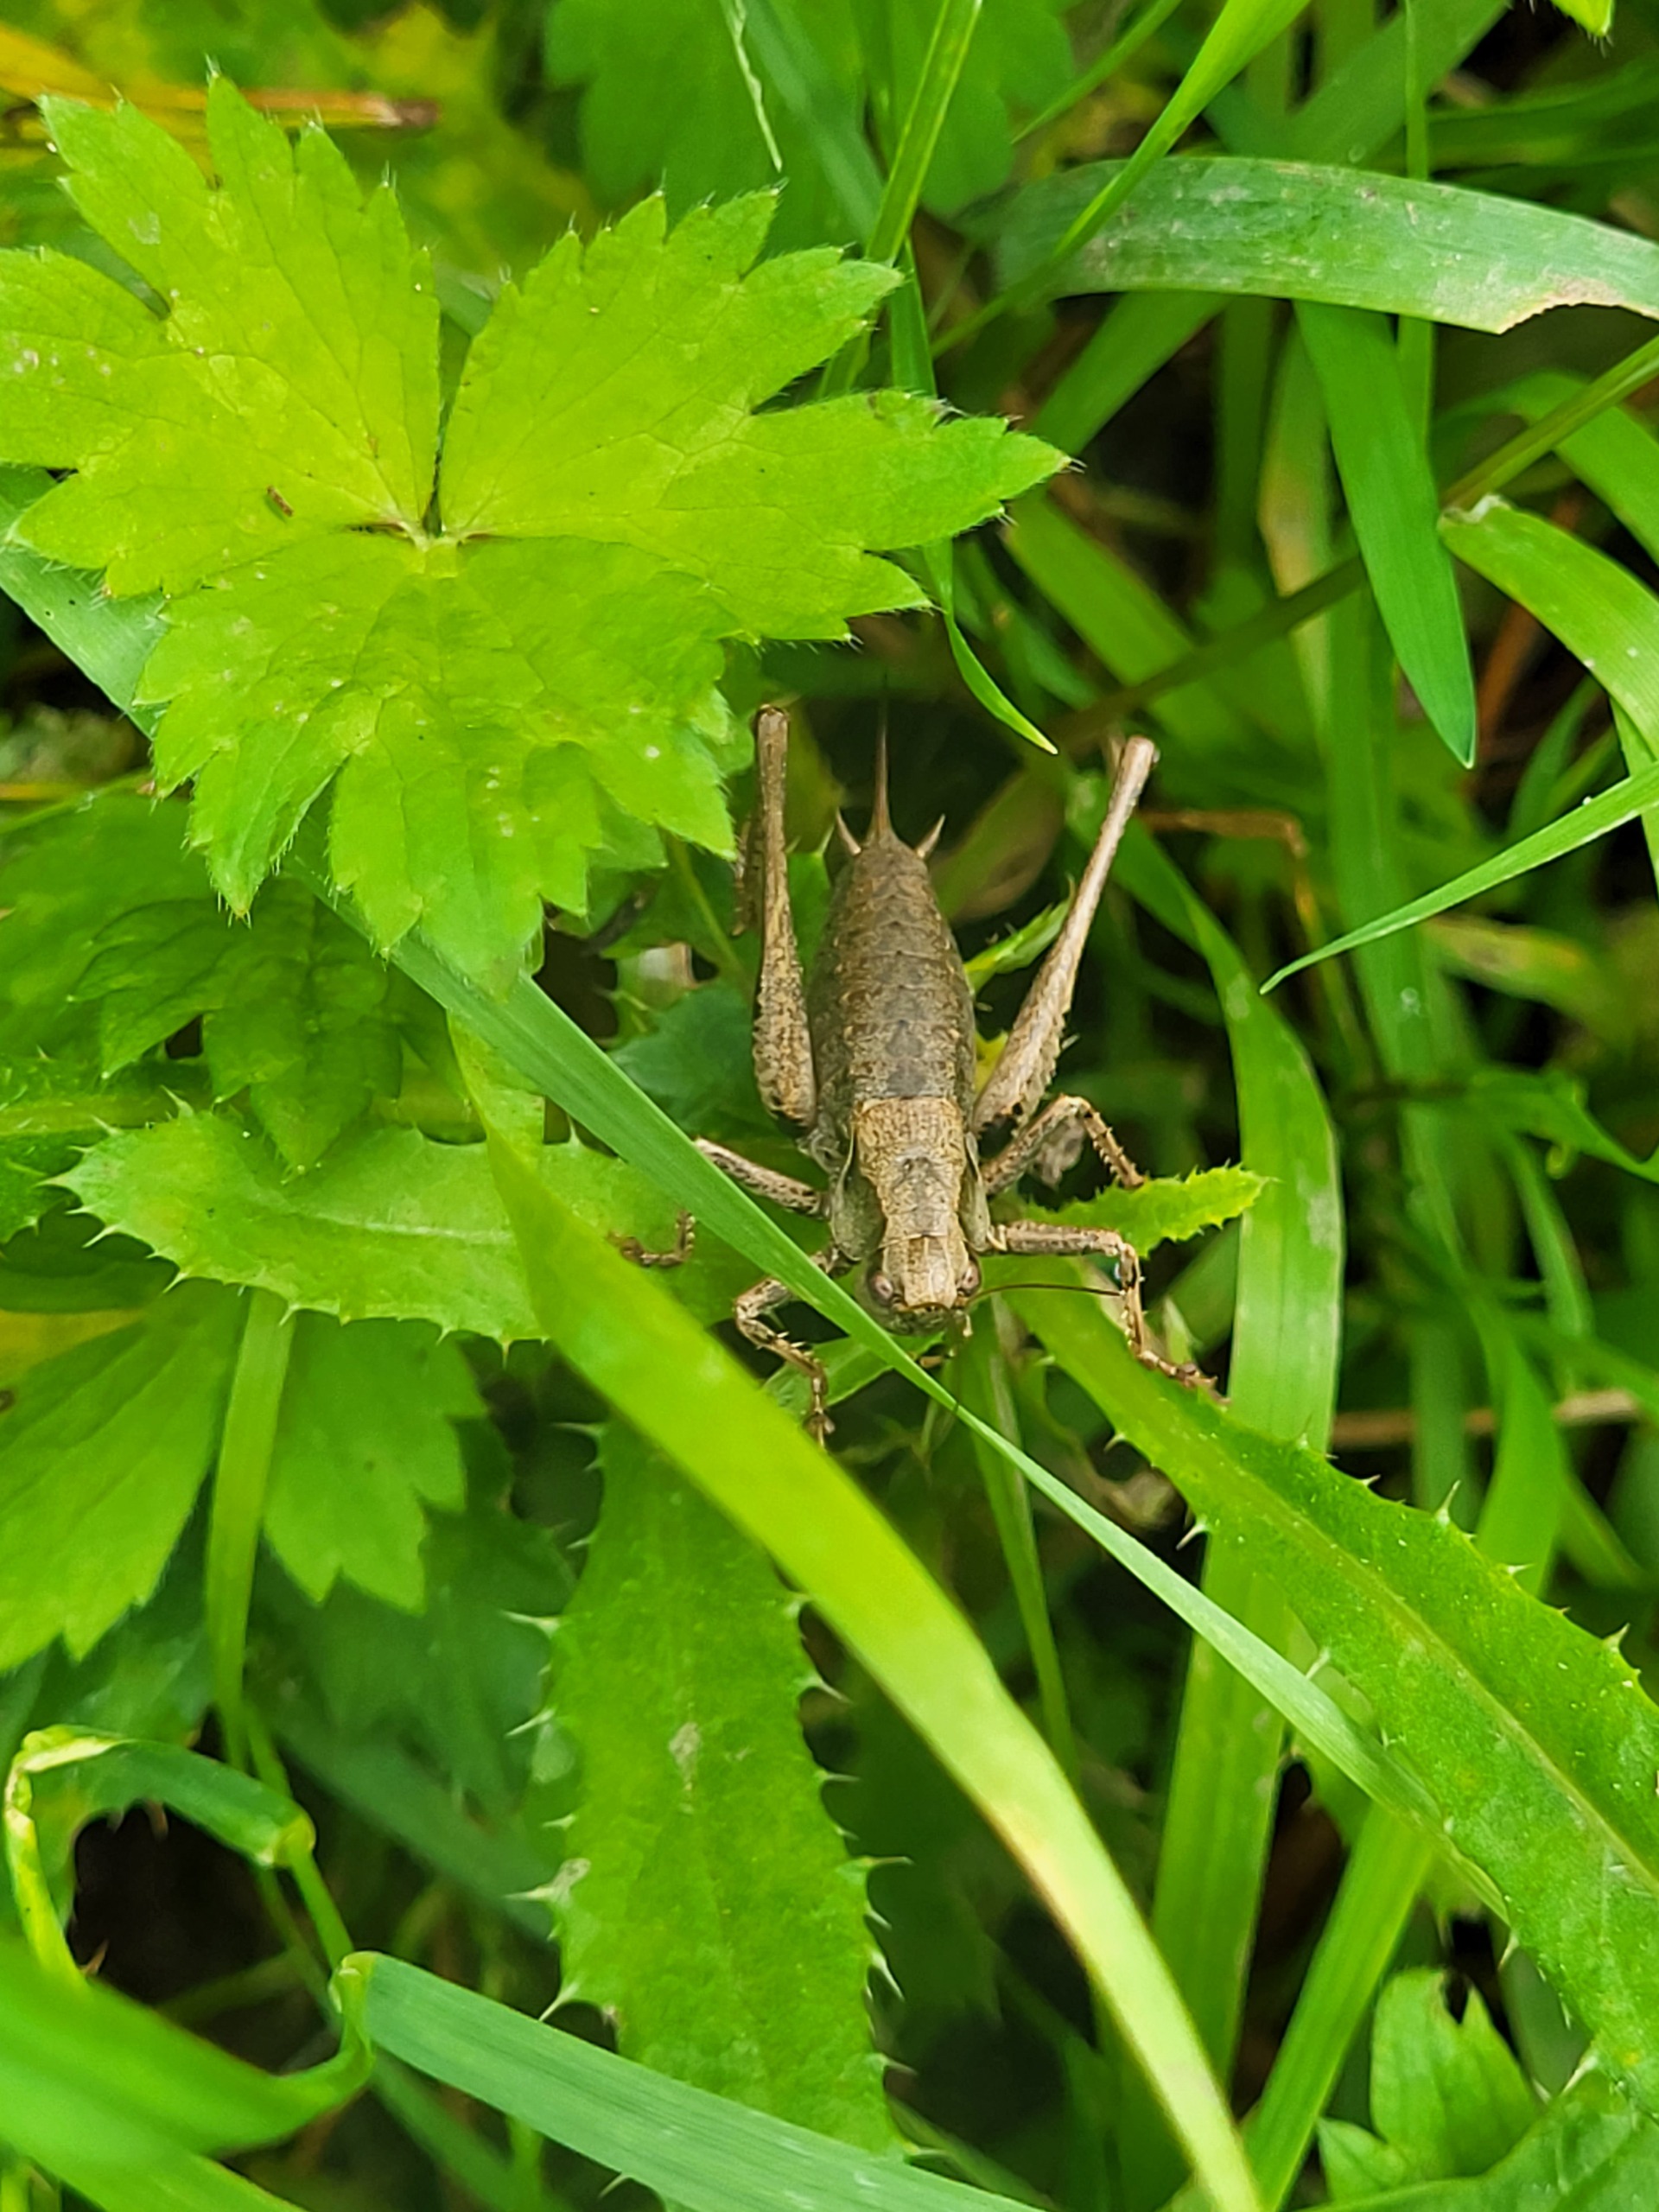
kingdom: Animalia
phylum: Arthropoda
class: Insecta
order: Orthoptera
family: Tettigoniidae
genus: Pholidoptera
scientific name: Pholidoptera griseoaptera
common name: Buskgræshoppe
